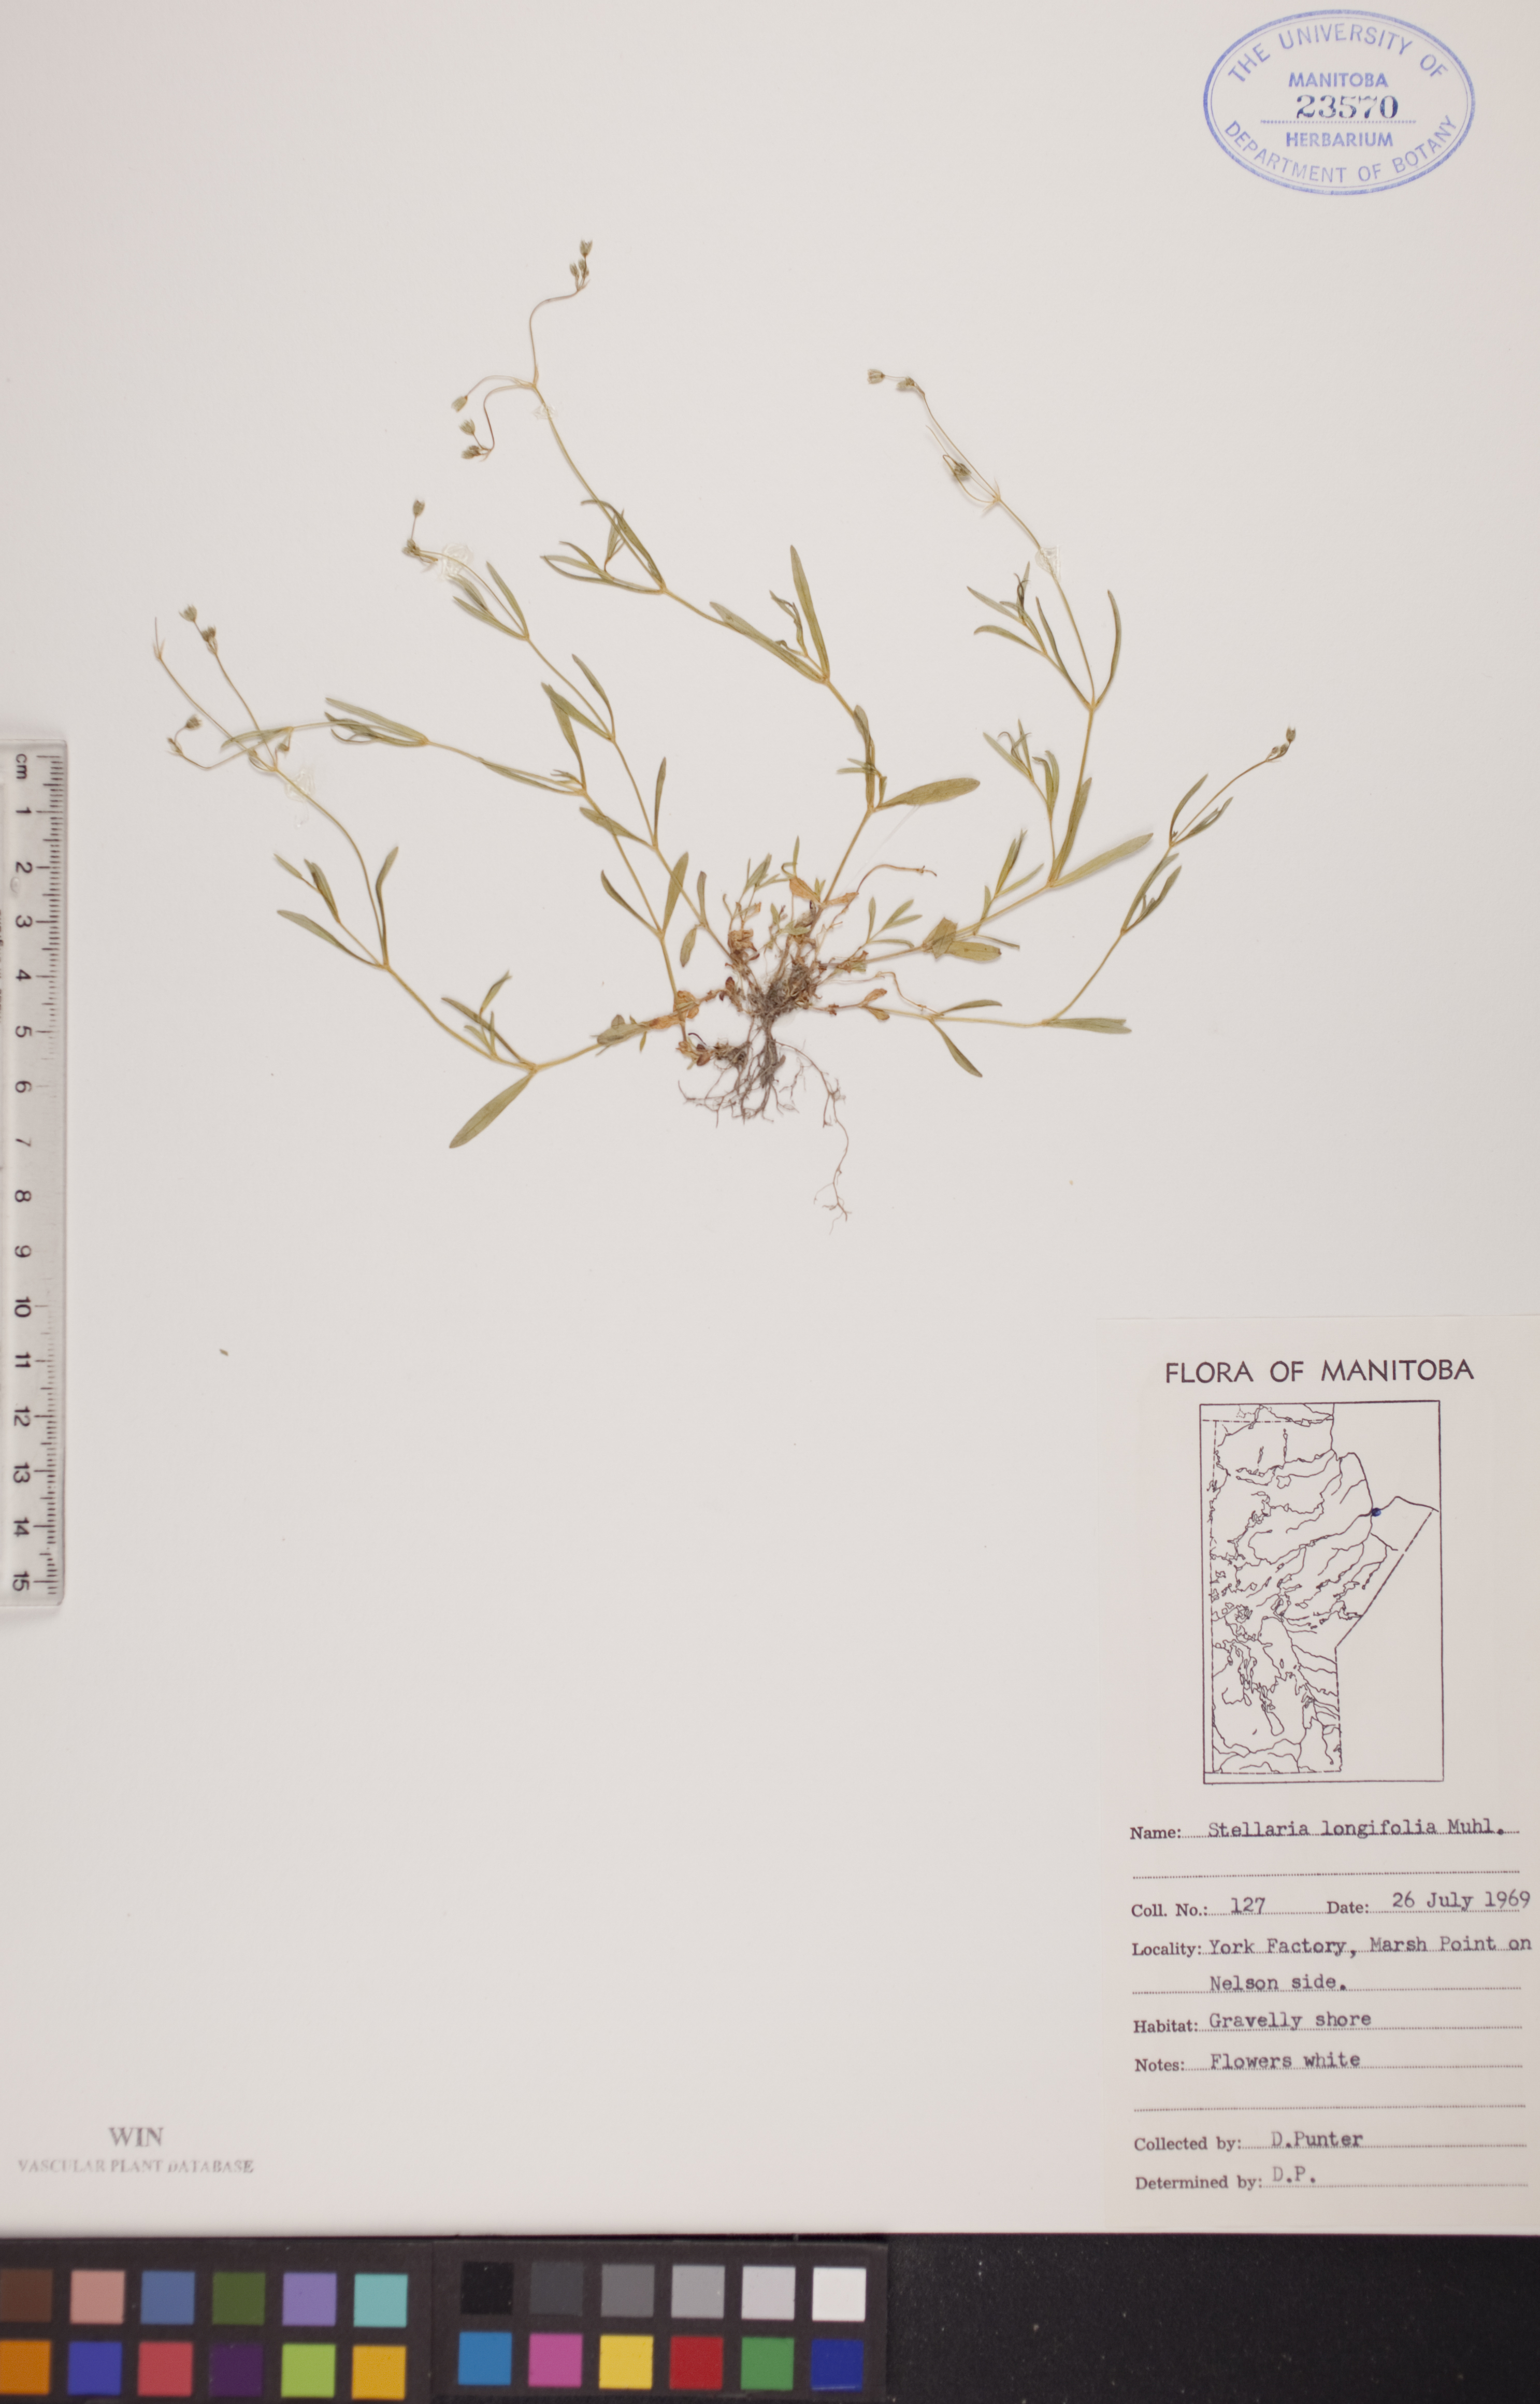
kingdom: Plantae
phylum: Tracheophyta
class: Magnoliopsida
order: Caryophyllales
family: Caryophyllaceae
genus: Stellaria
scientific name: Stellaria longifolia
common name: Long-leaved chickweed
